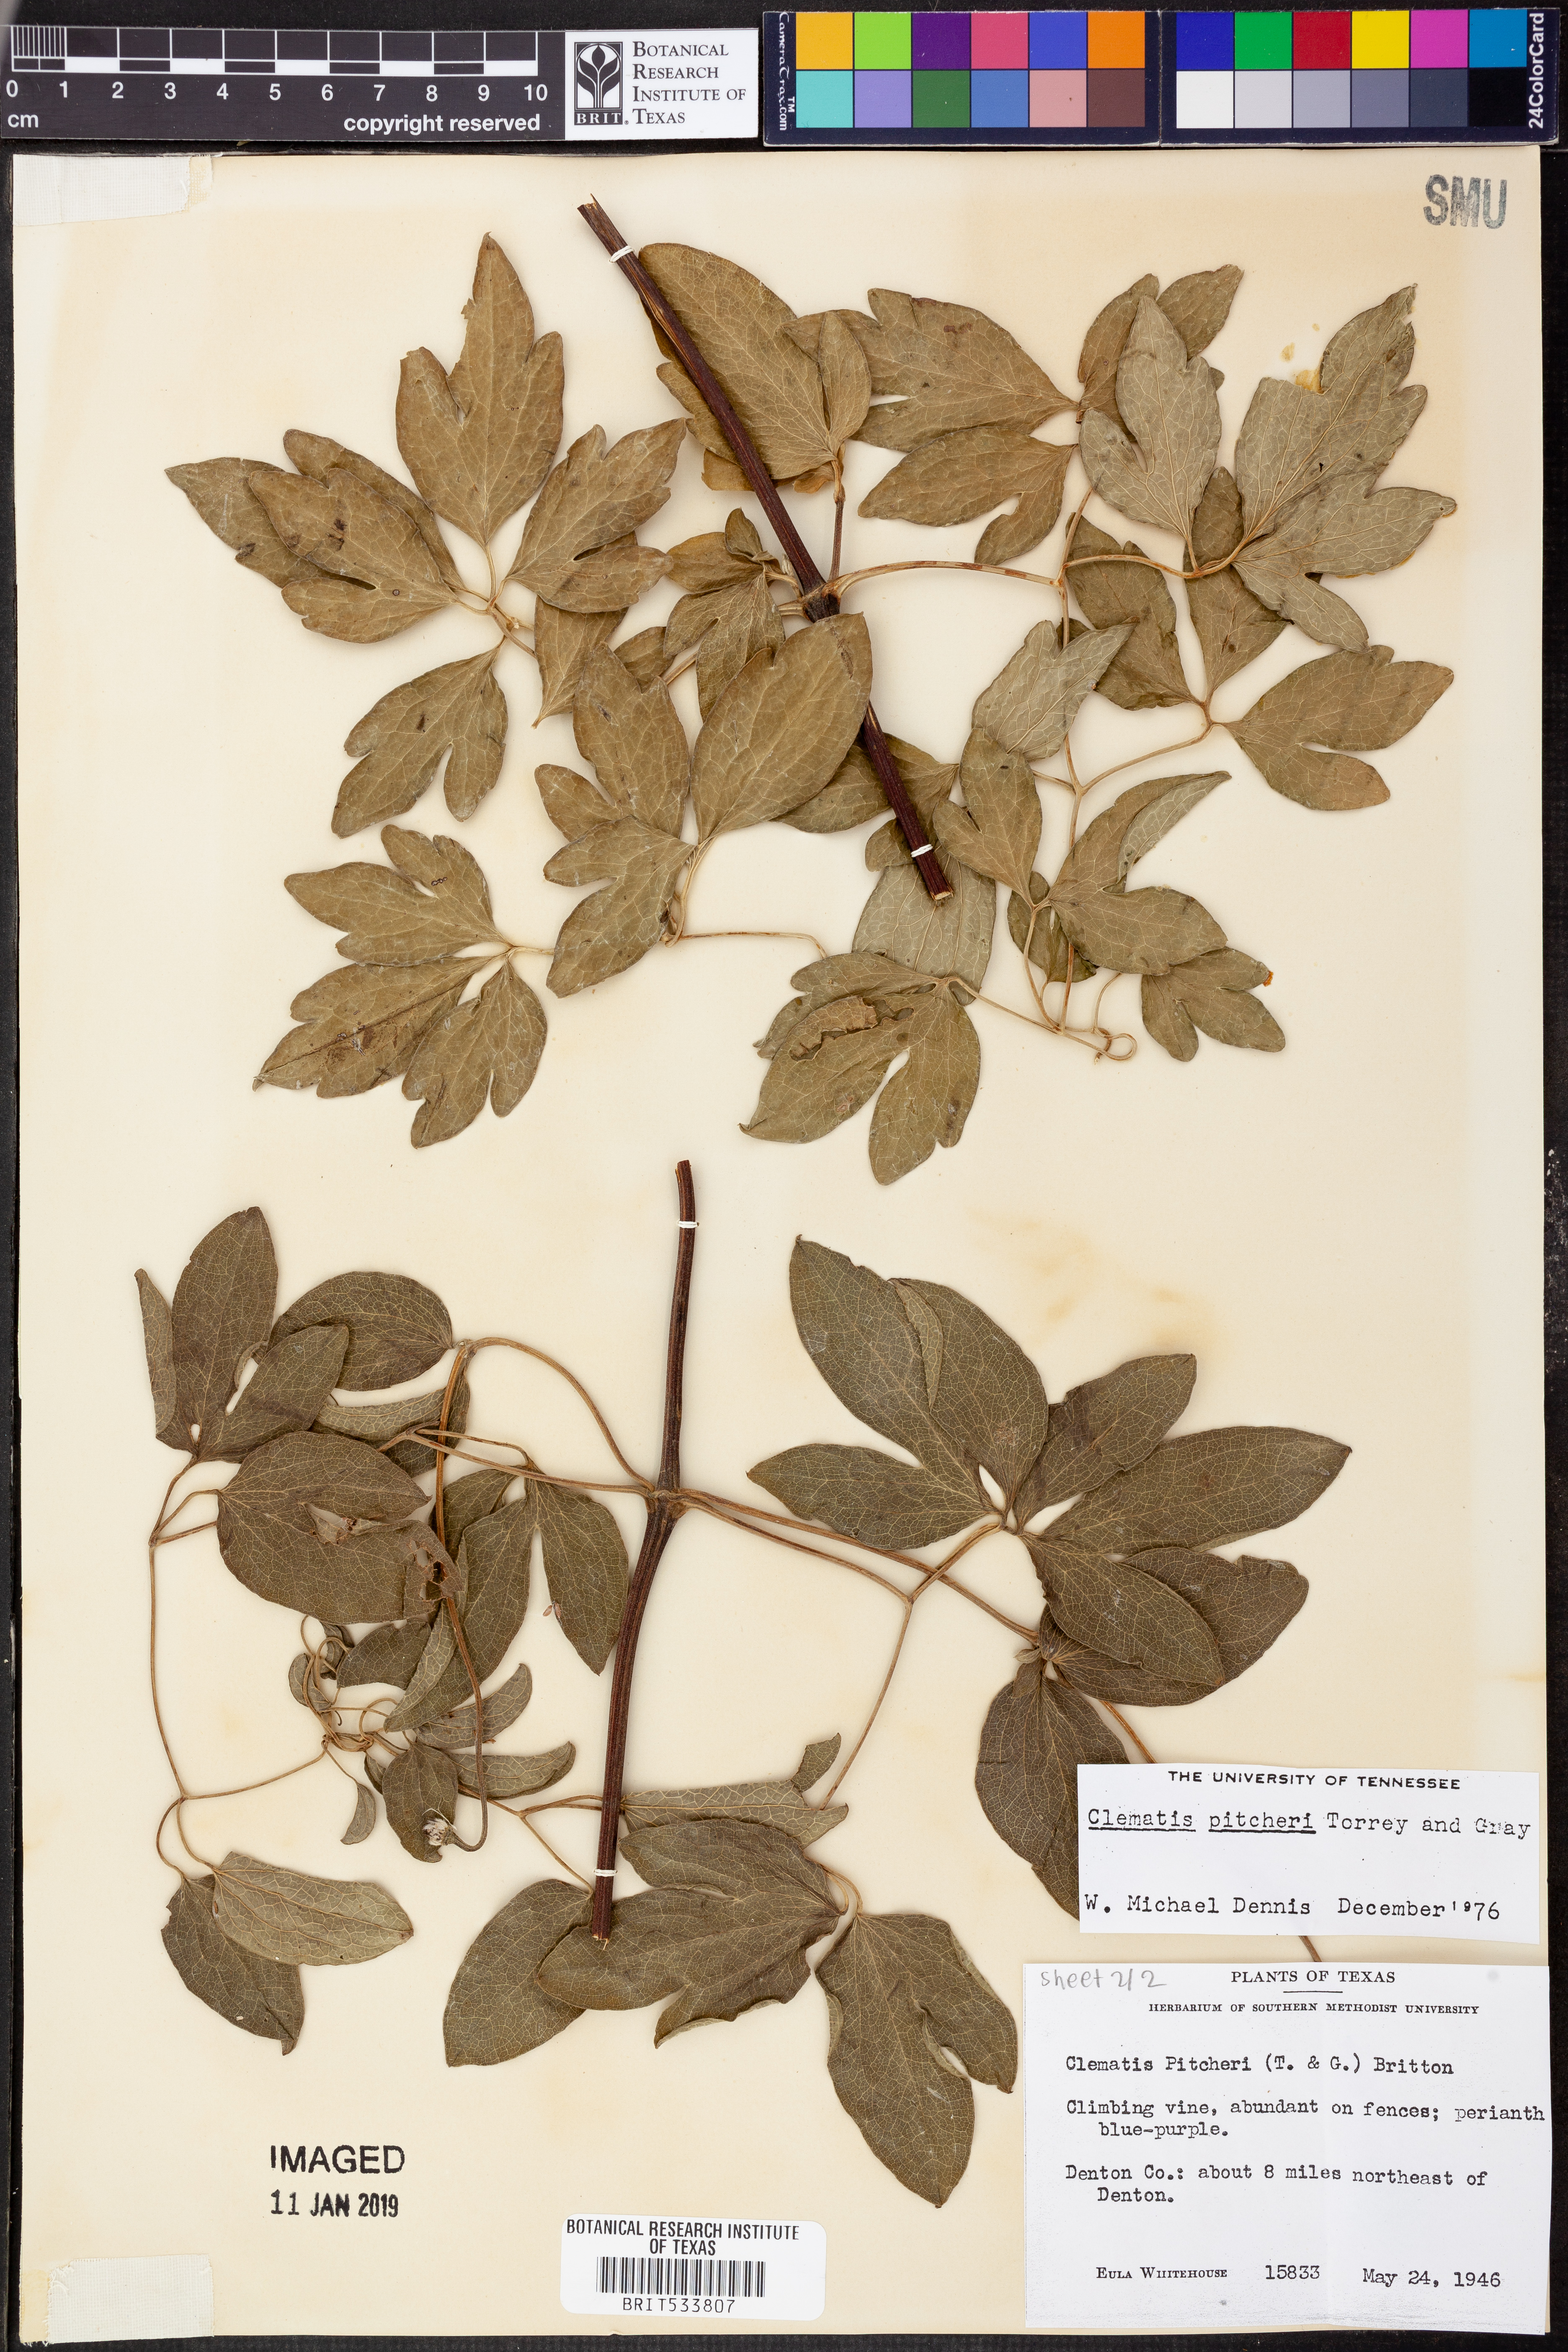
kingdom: Plantae
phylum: Tracheophyta
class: Magnoliopsida
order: Ranunculales
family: Ranunculaceae
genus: Clematis
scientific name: Clematis pitcheri
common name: Bellflower clematis
